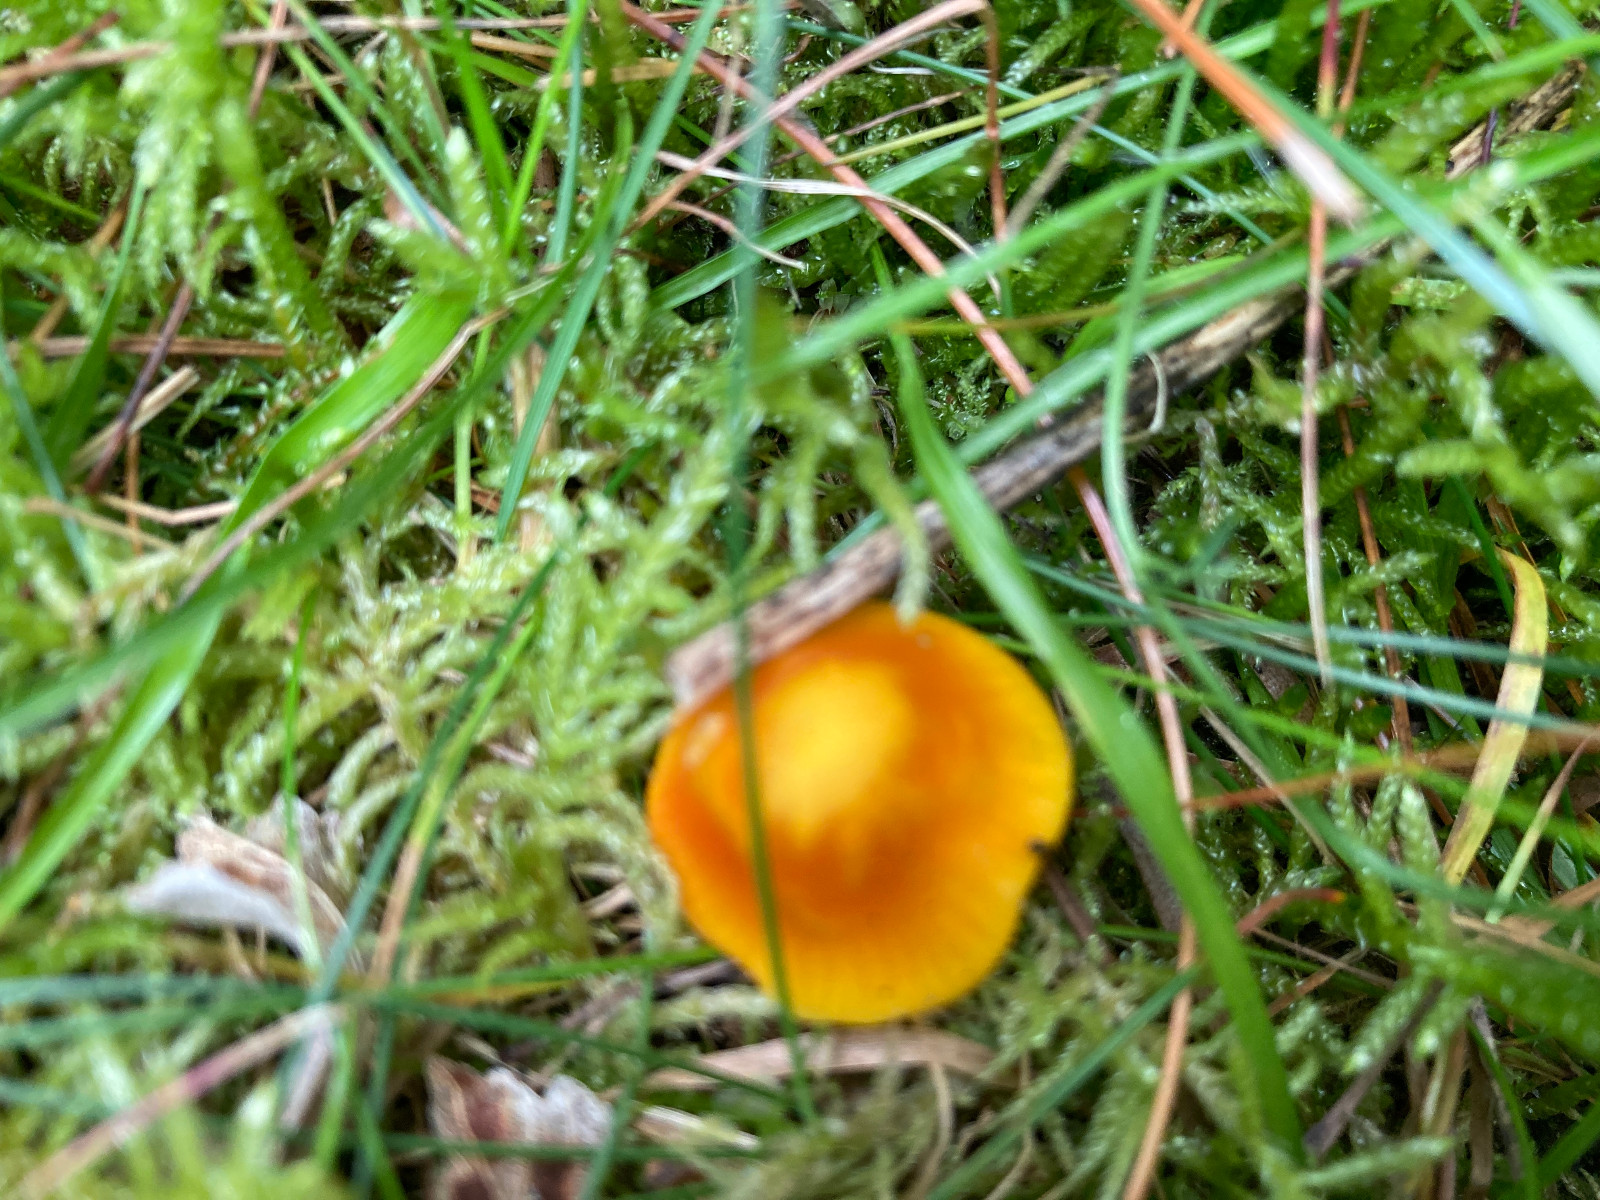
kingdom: Fungi
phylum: Basidiomycota
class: Agaricomycetes
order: Agaricales
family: Hygrophoraceae
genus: Hygrocybe
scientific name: Hygrocybe
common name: vokshat
